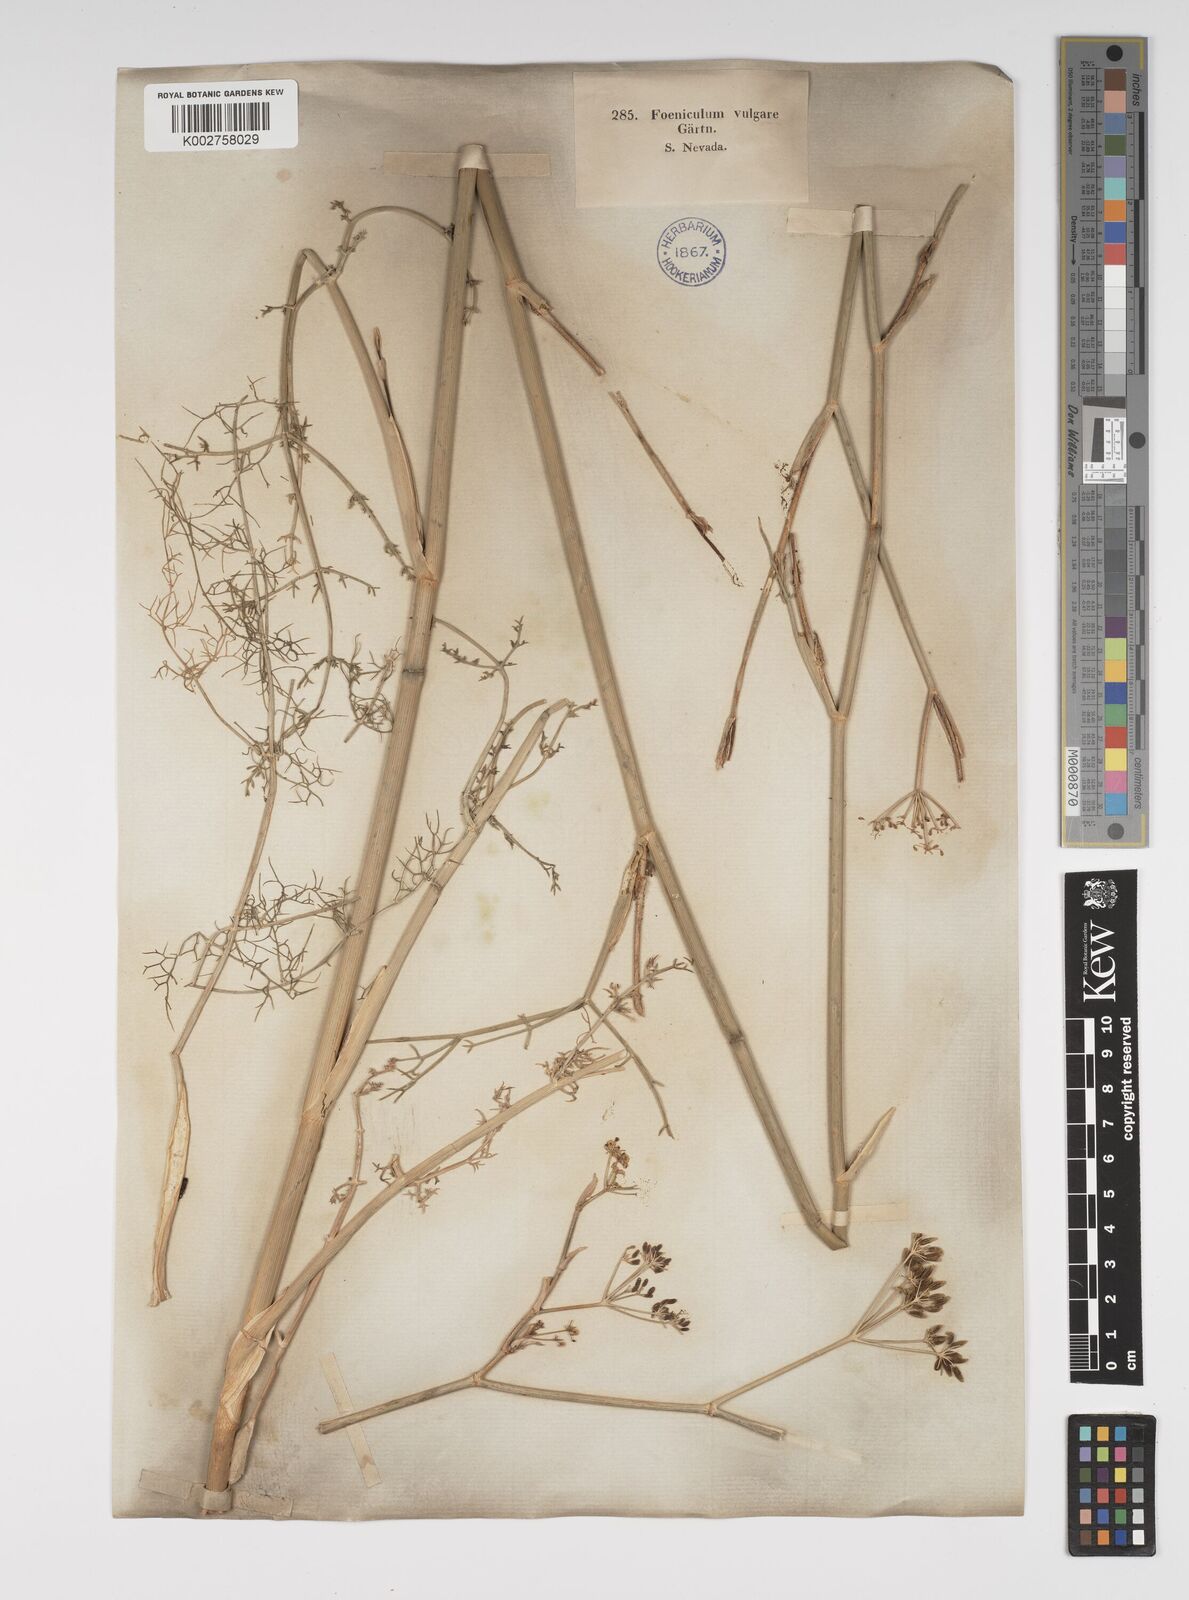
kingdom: Plantae
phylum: Tracheophyta
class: Magnoliopsida
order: Apiales
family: Apiaceae
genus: Foeniculum
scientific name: Foeniculum vulgare
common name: Fennel
